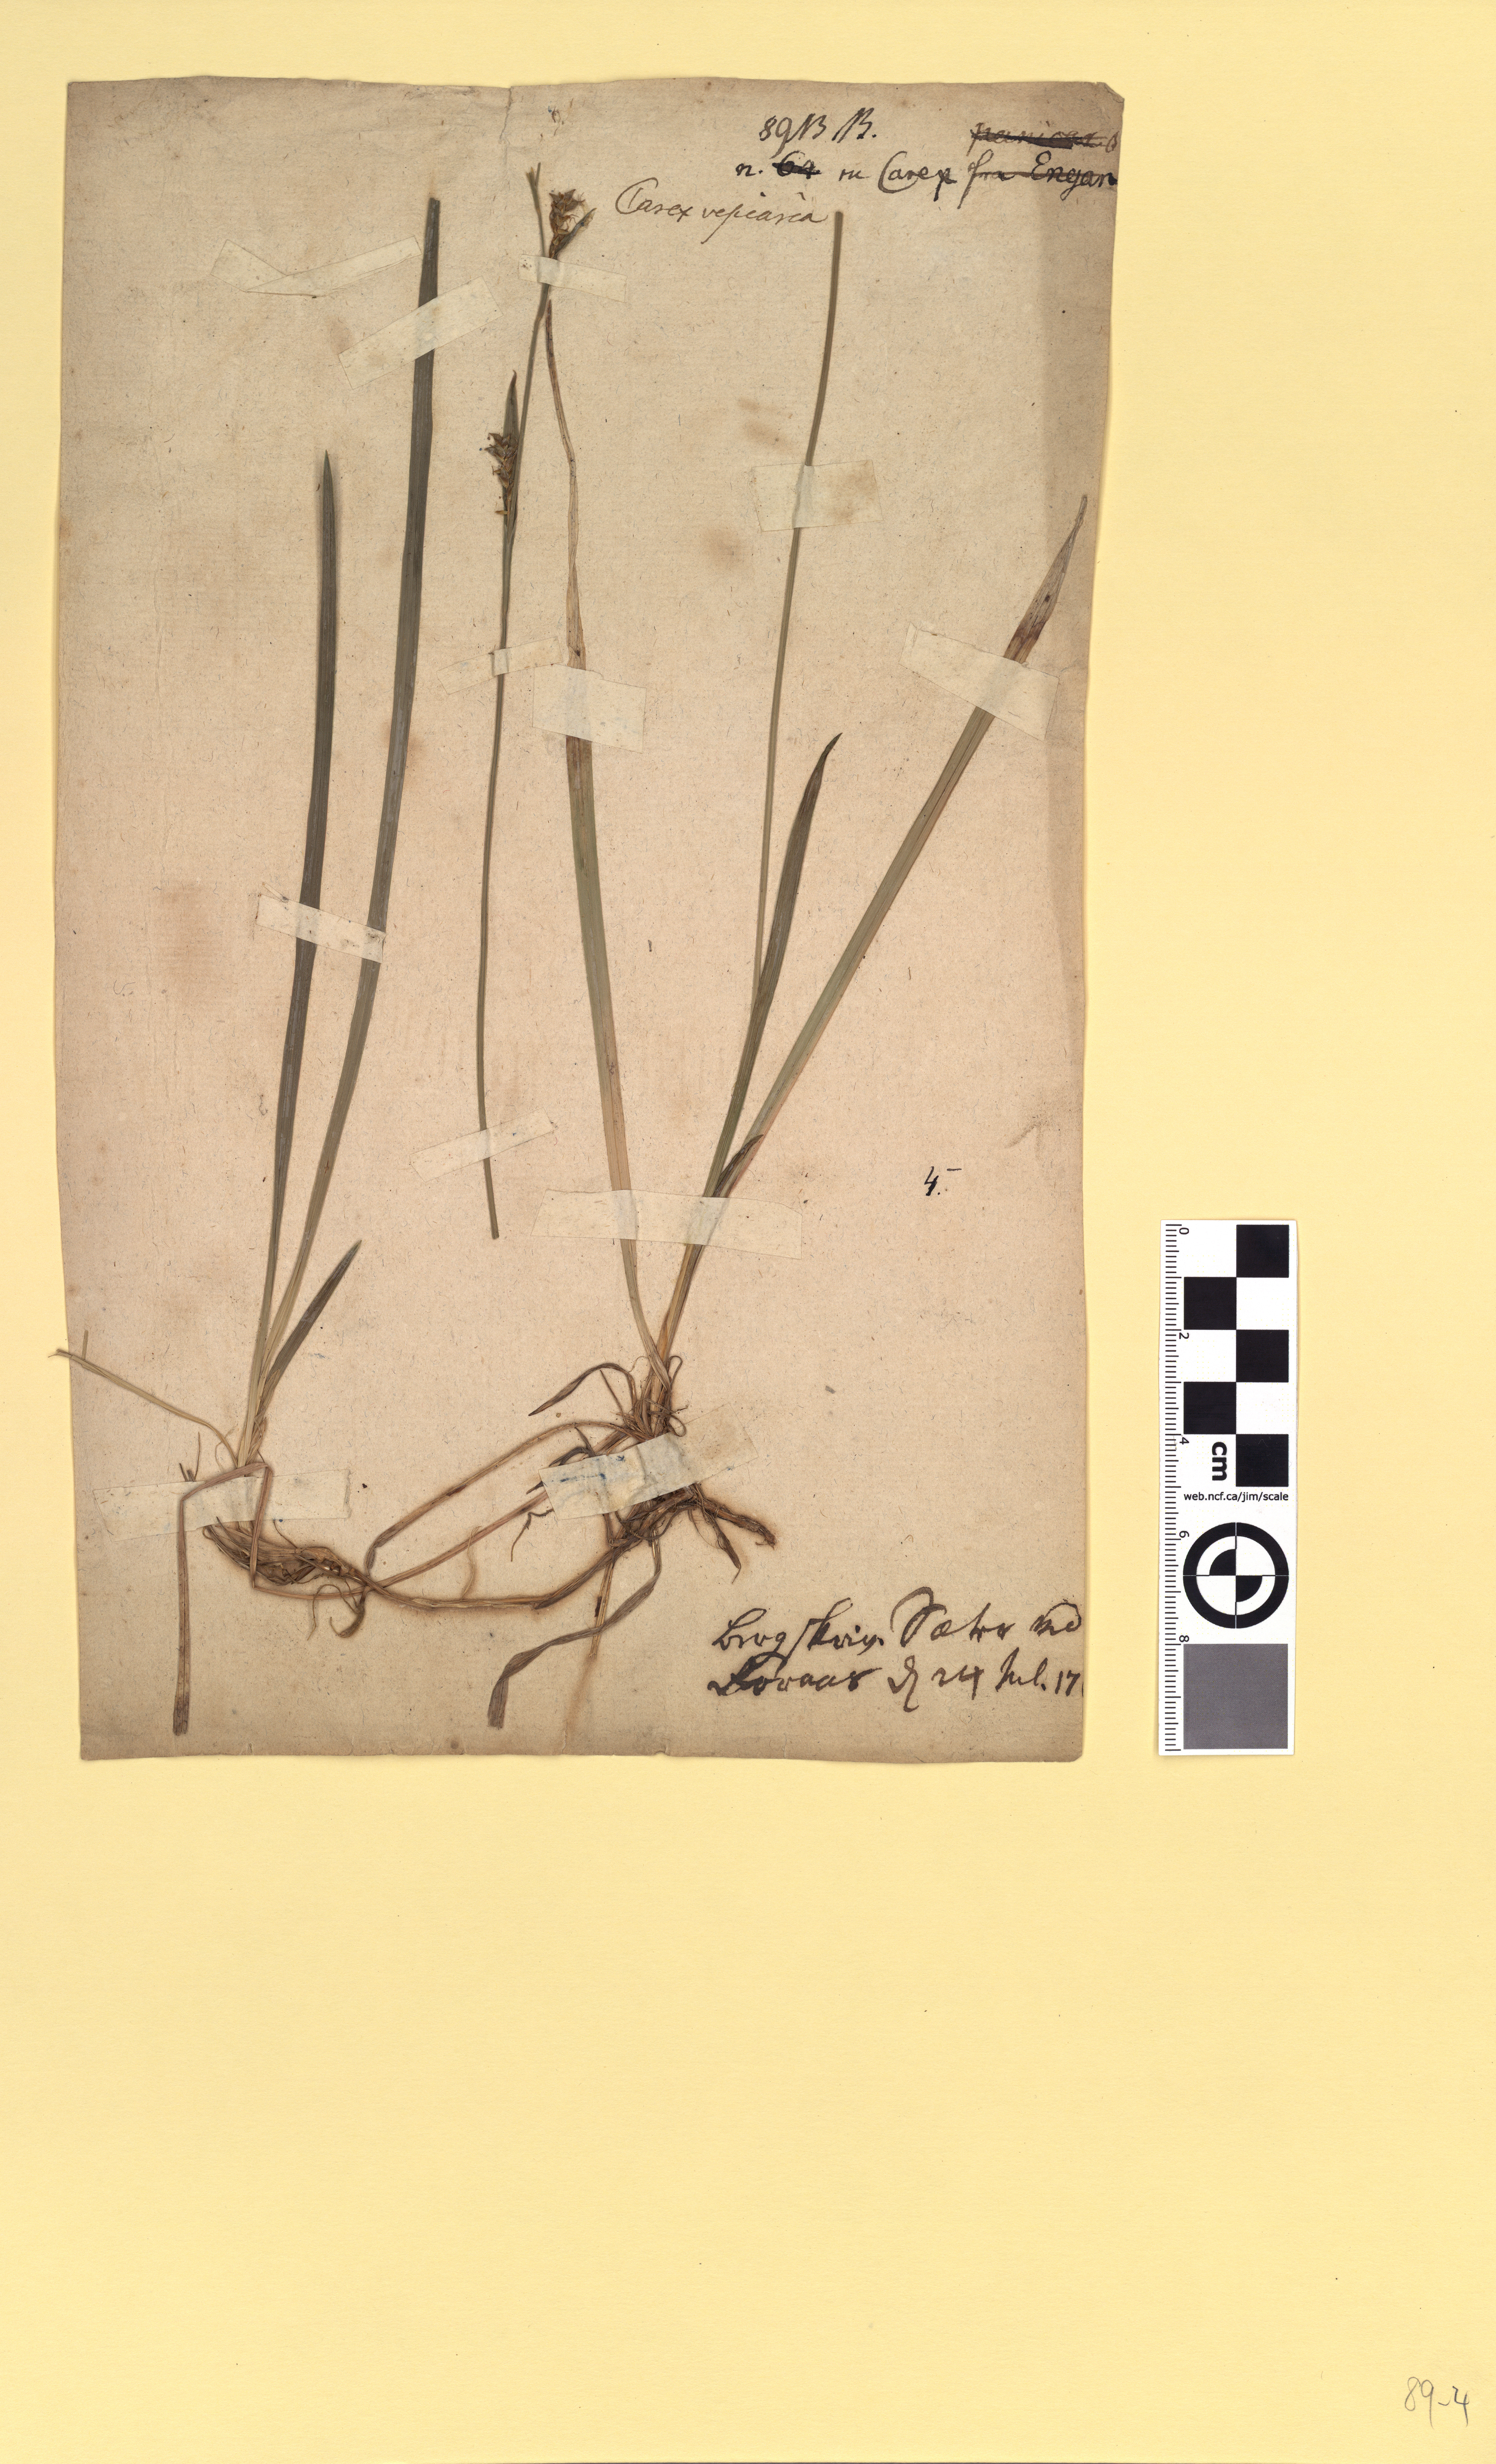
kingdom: Plantae
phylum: Tracheophyta
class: Liliopsida
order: Poales
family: Cyperaceae
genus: Carex
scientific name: Carex rostrata
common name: Bottle sedge
